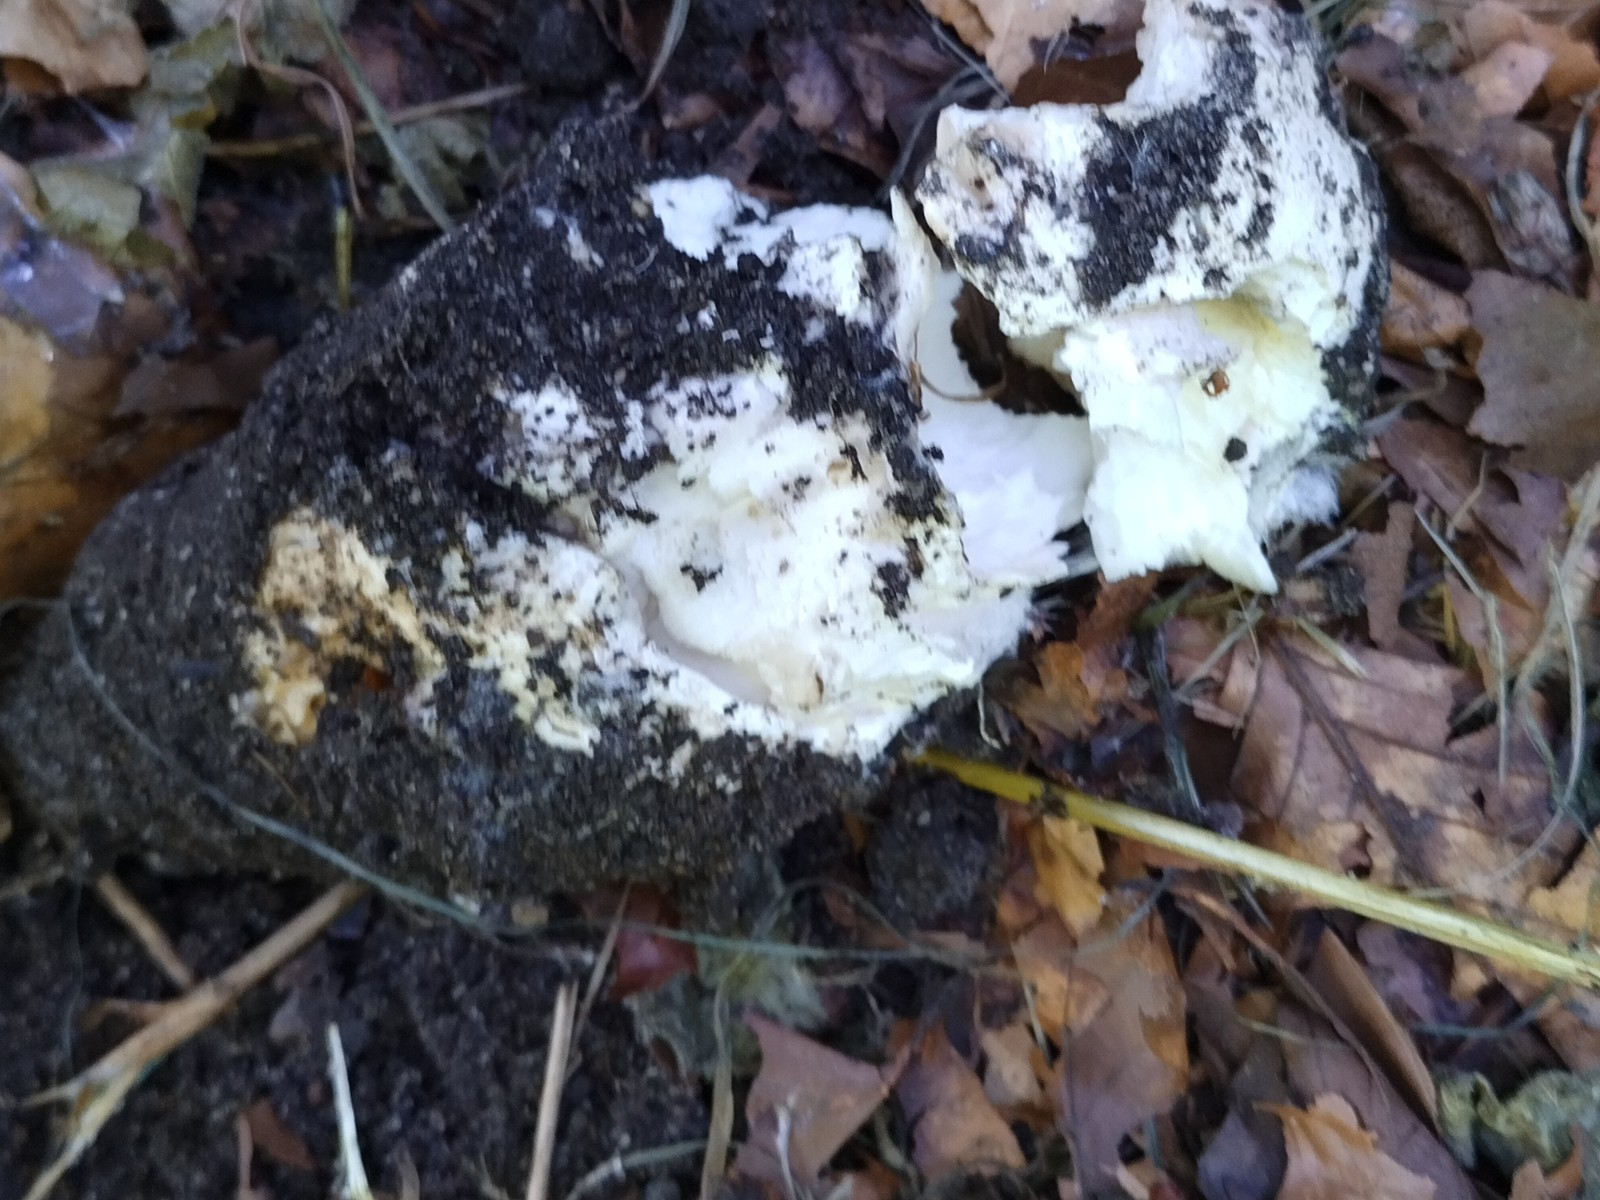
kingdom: Fungi
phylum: Basidiomycota
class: Agaricomycetes
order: Agaricales
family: Amanitaceae
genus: Amanita
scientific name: Amanita
